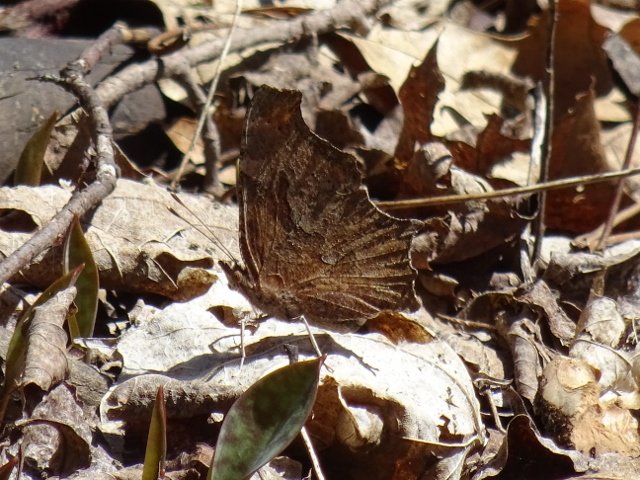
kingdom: Animalia
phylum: Arthropoda
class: Insecta
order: Lepidoptera
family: Nymphalidae
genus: Polygonia
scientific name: Polygonia progne
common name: Gray Comma
